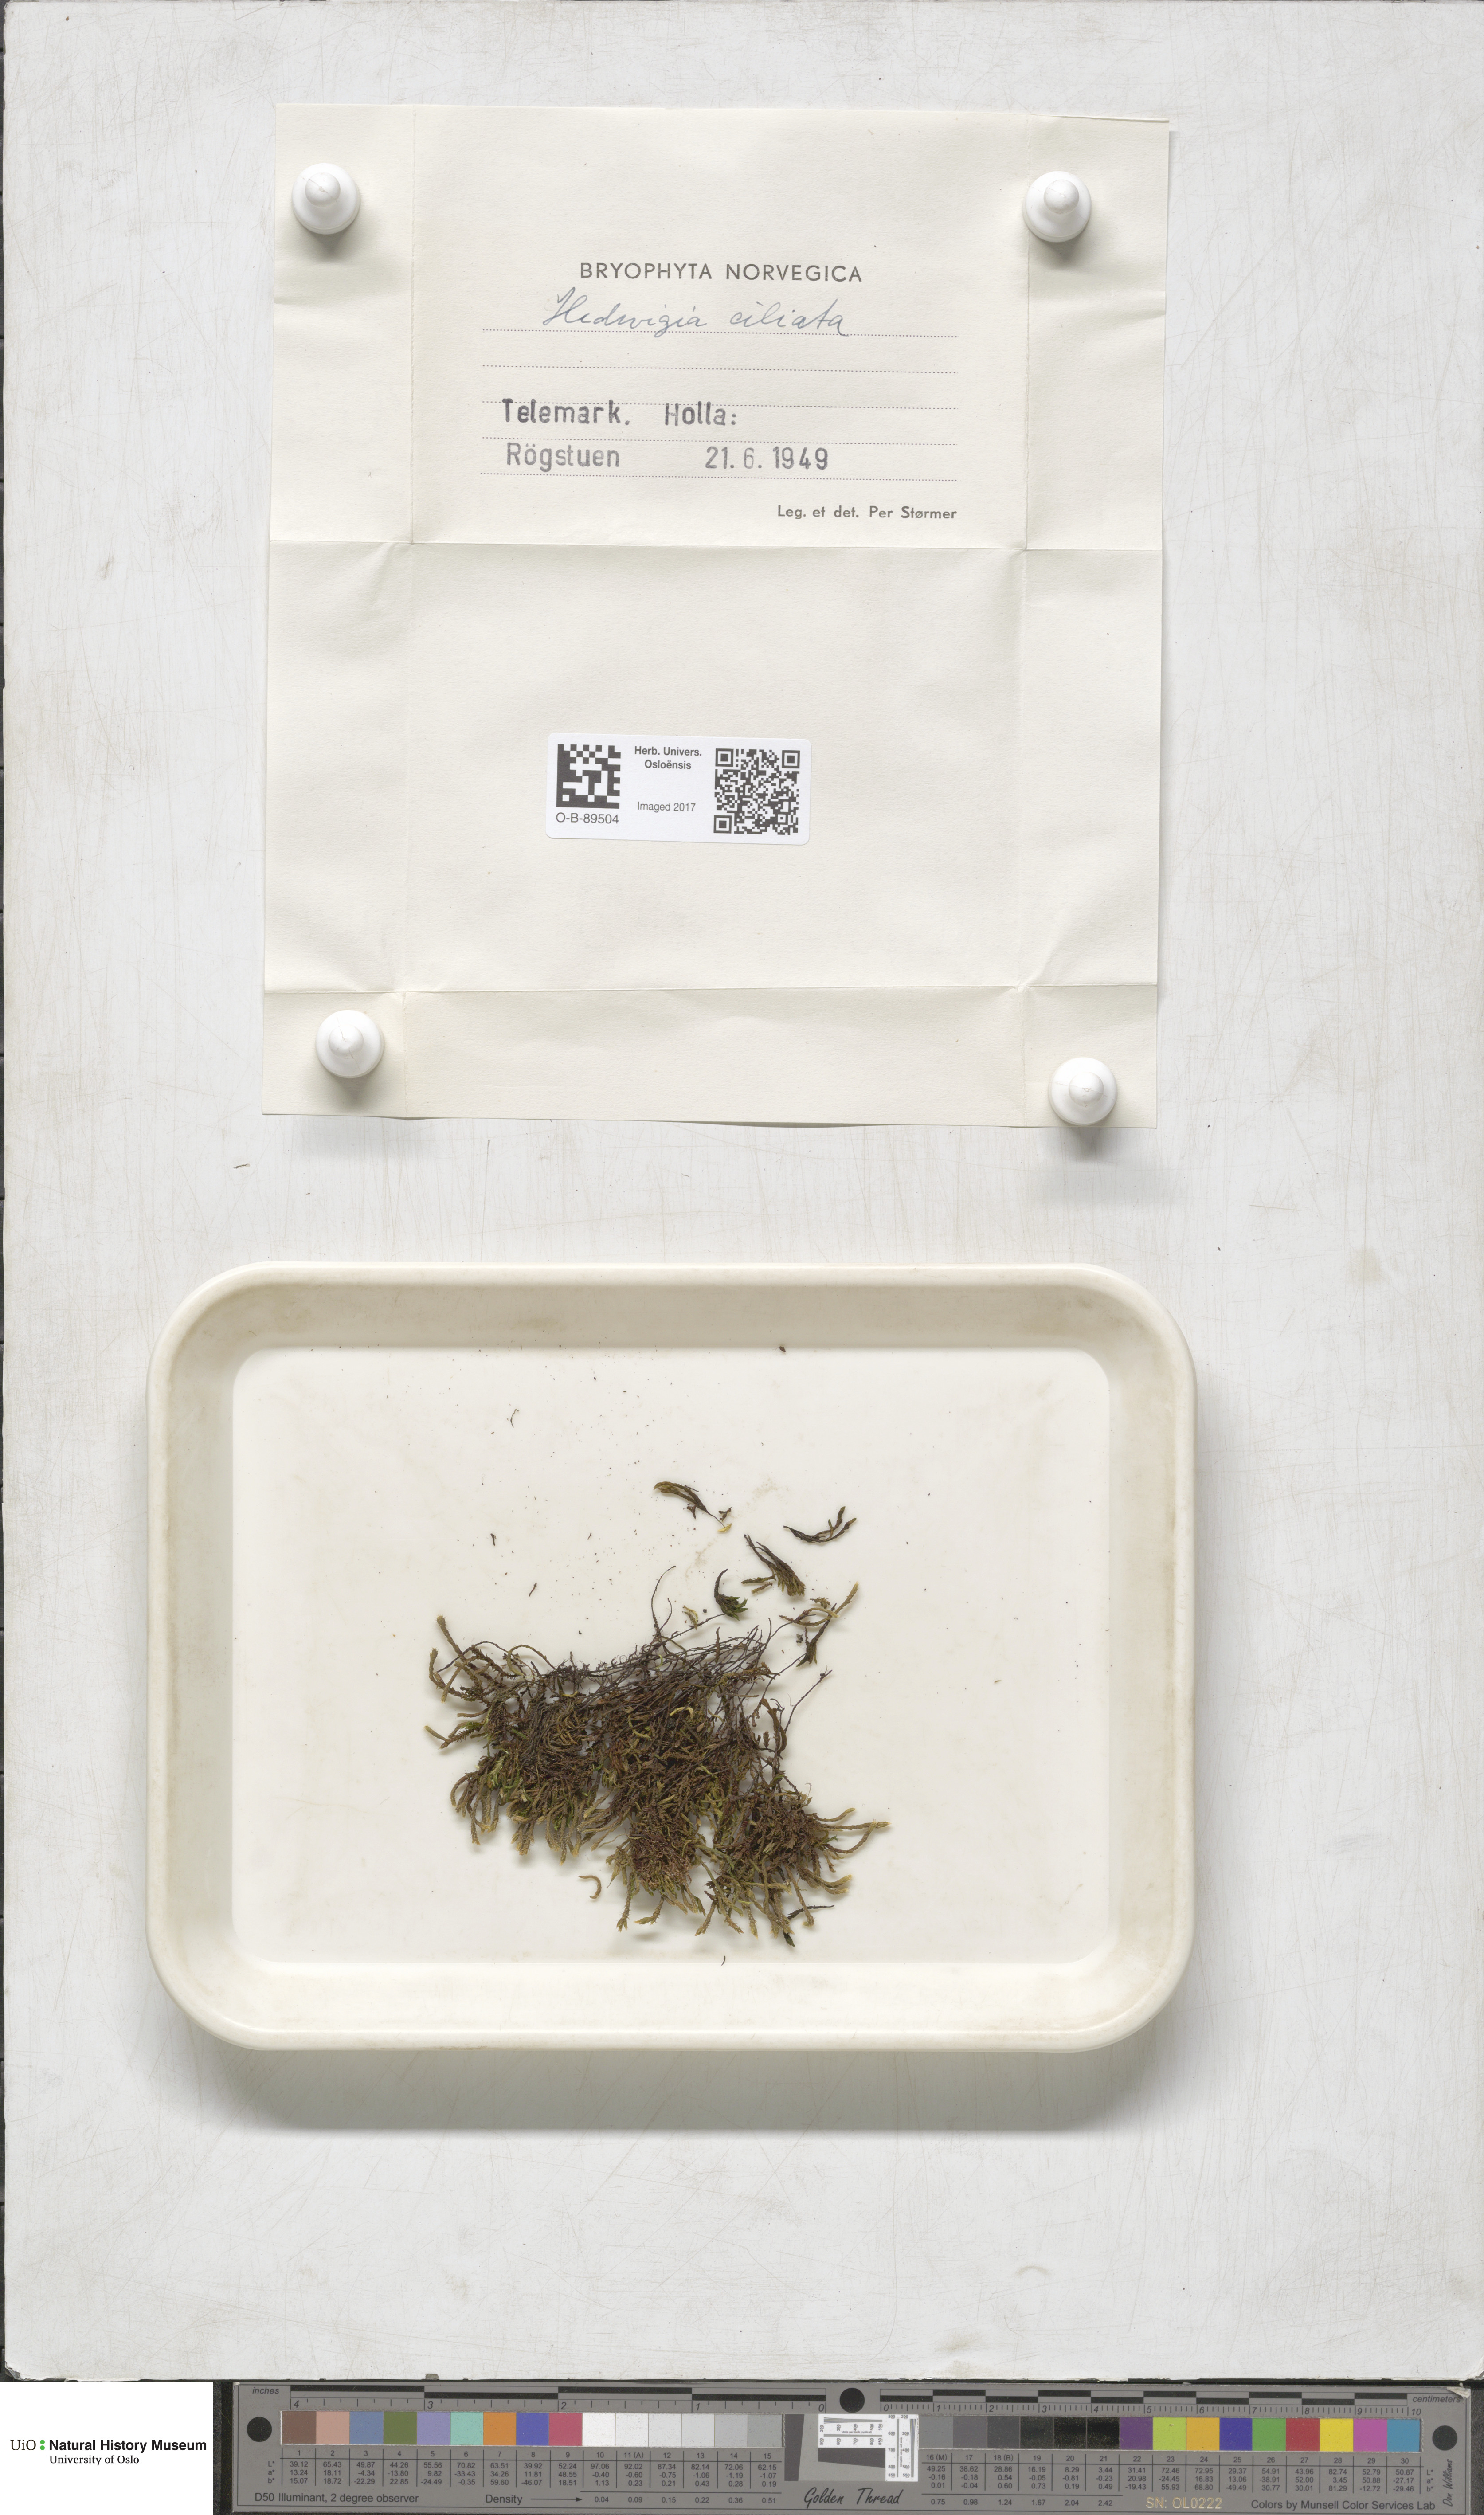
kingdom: Plantae
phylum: Bryophyta
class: Bryopsida
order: Hedwigiales
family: Hedwigiaceae
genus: Hedwigia
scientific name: Hedwigia ciliata
